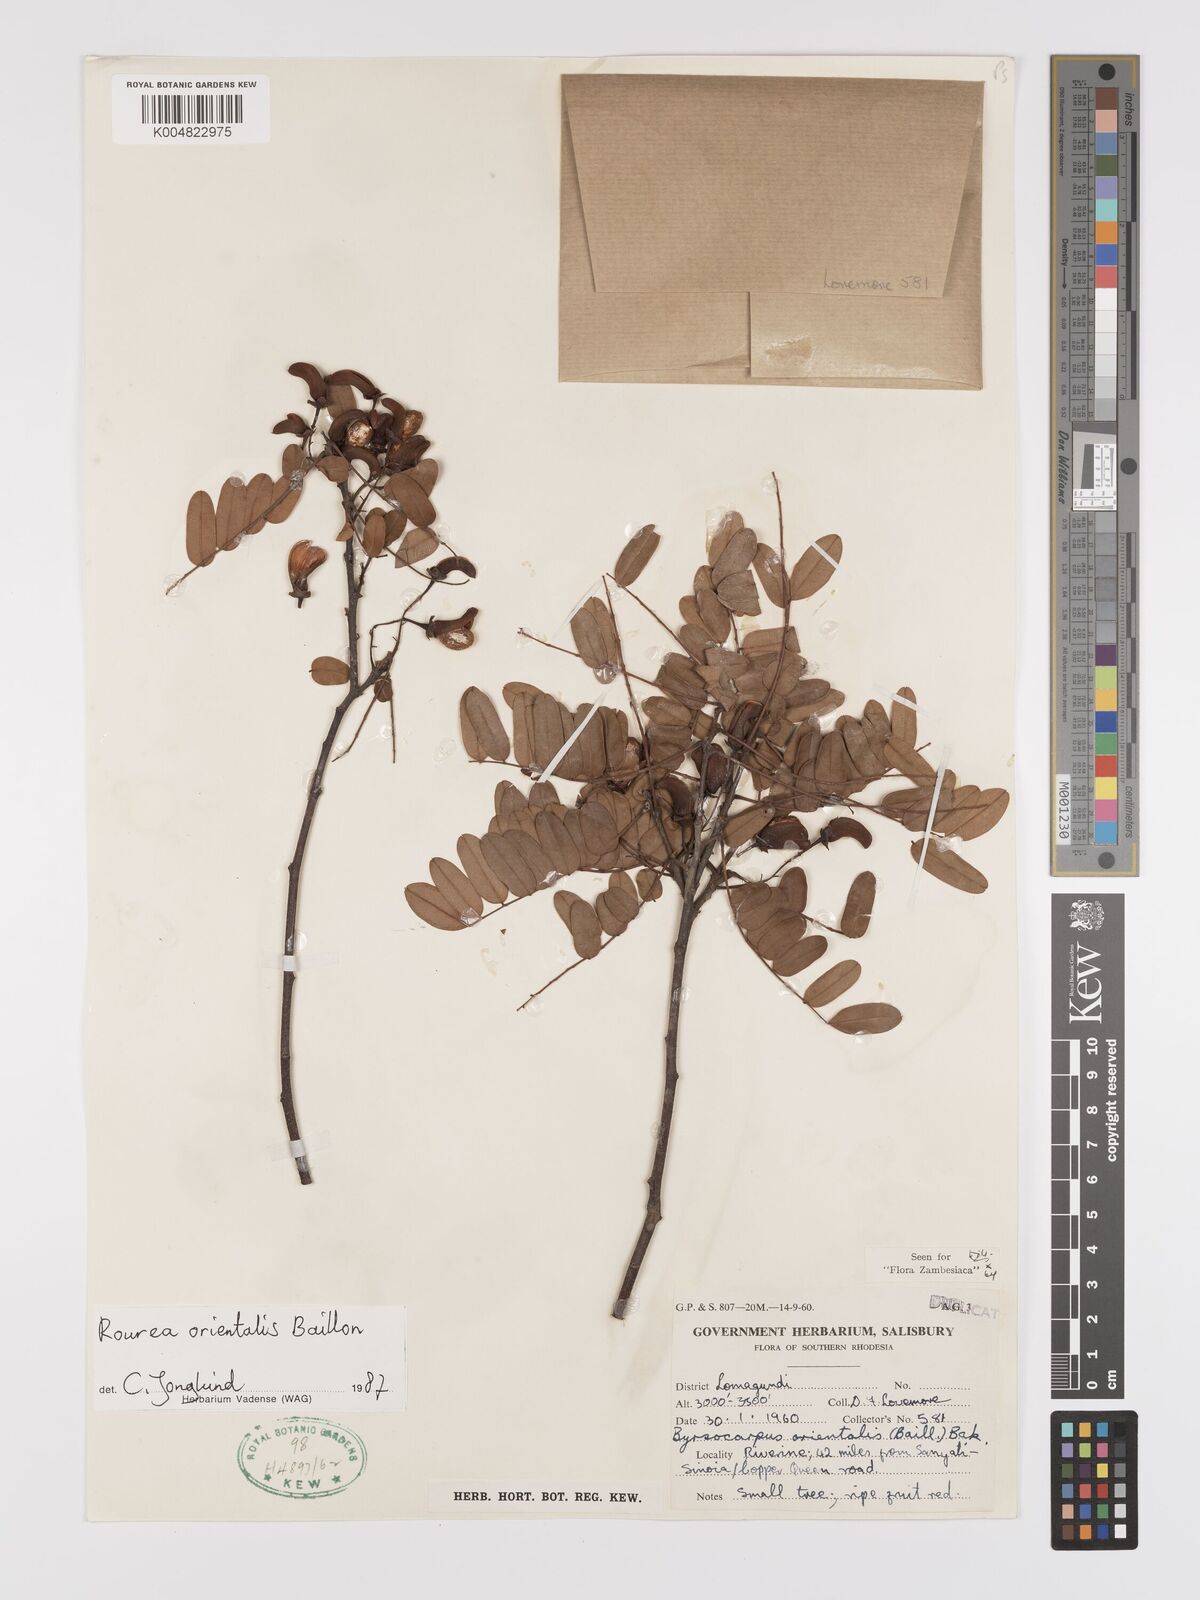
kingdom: Plantae
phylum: Tracheophyta
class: Magnoliopsida
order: Oxalidales
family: Connaraceae
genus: Rourea
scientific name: Rourea orientalis
